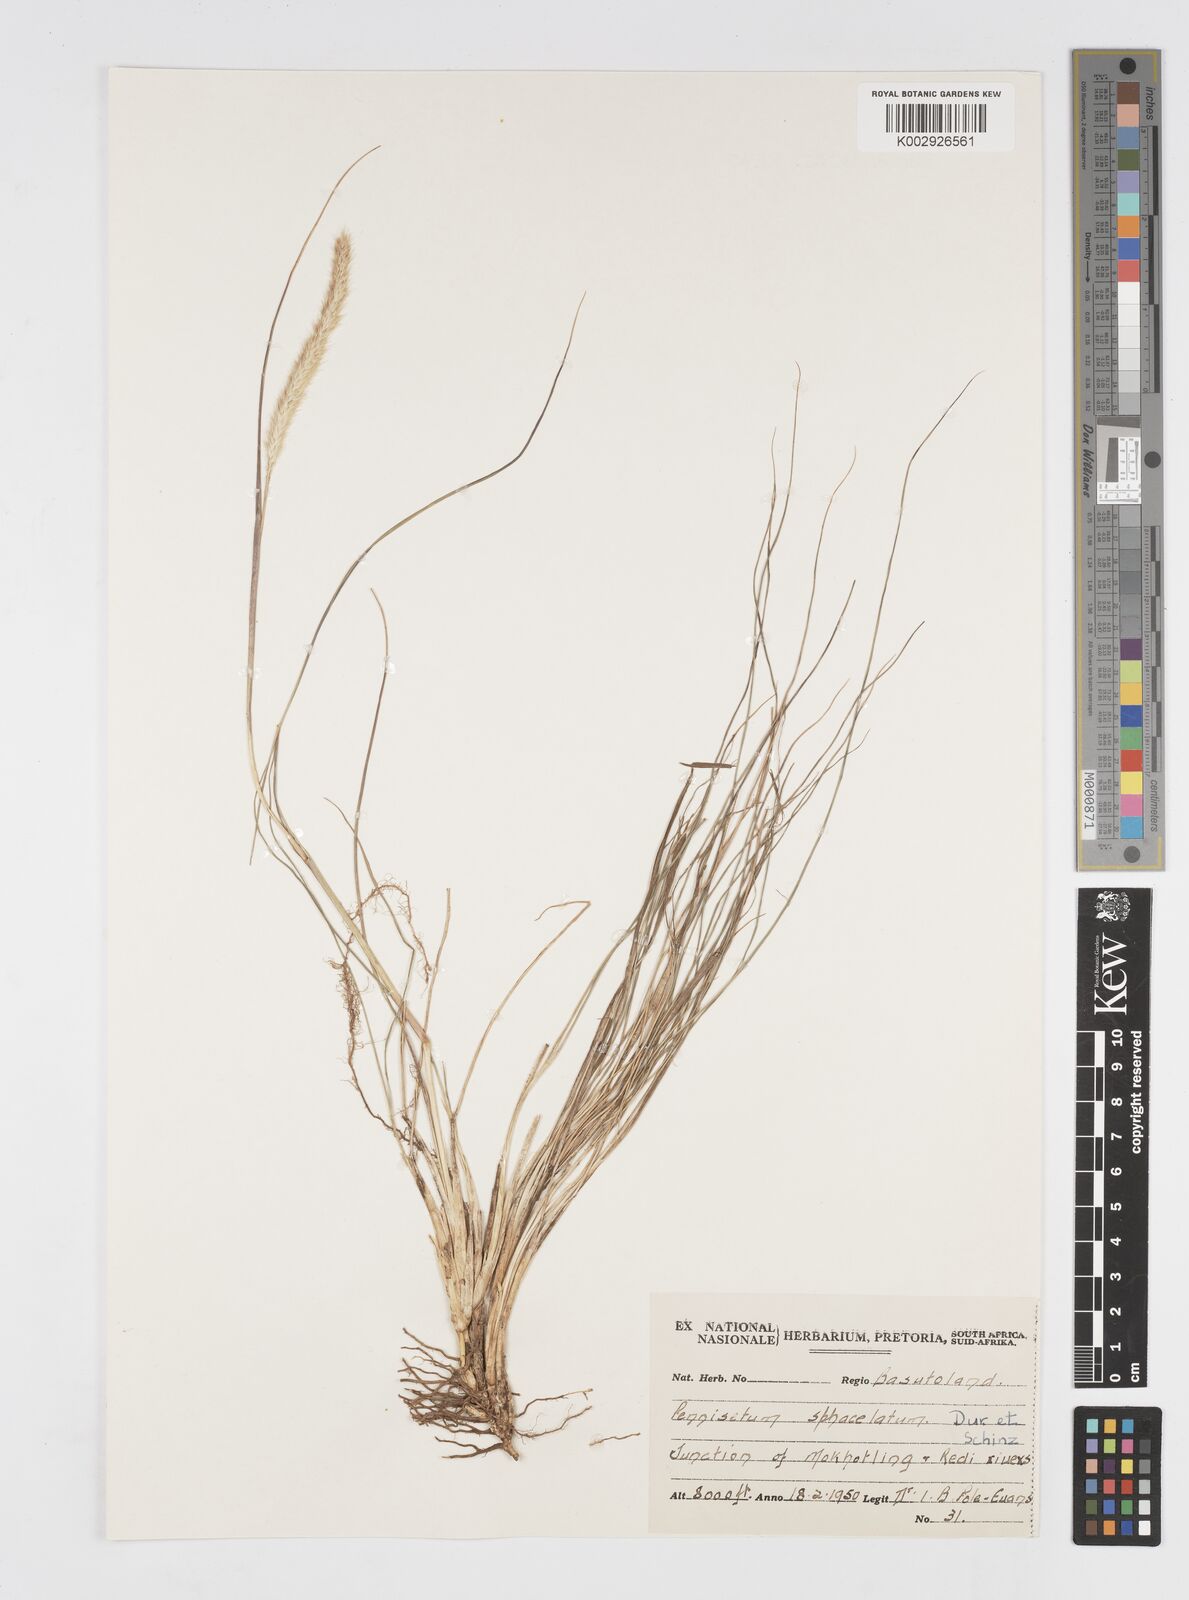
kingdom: Plantae
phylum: Tracheophyta
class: Liliopsida
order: Poales
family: Poaceae
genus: Cenchrus
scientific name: Cenchrus sphacelatus
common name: Bulgras
